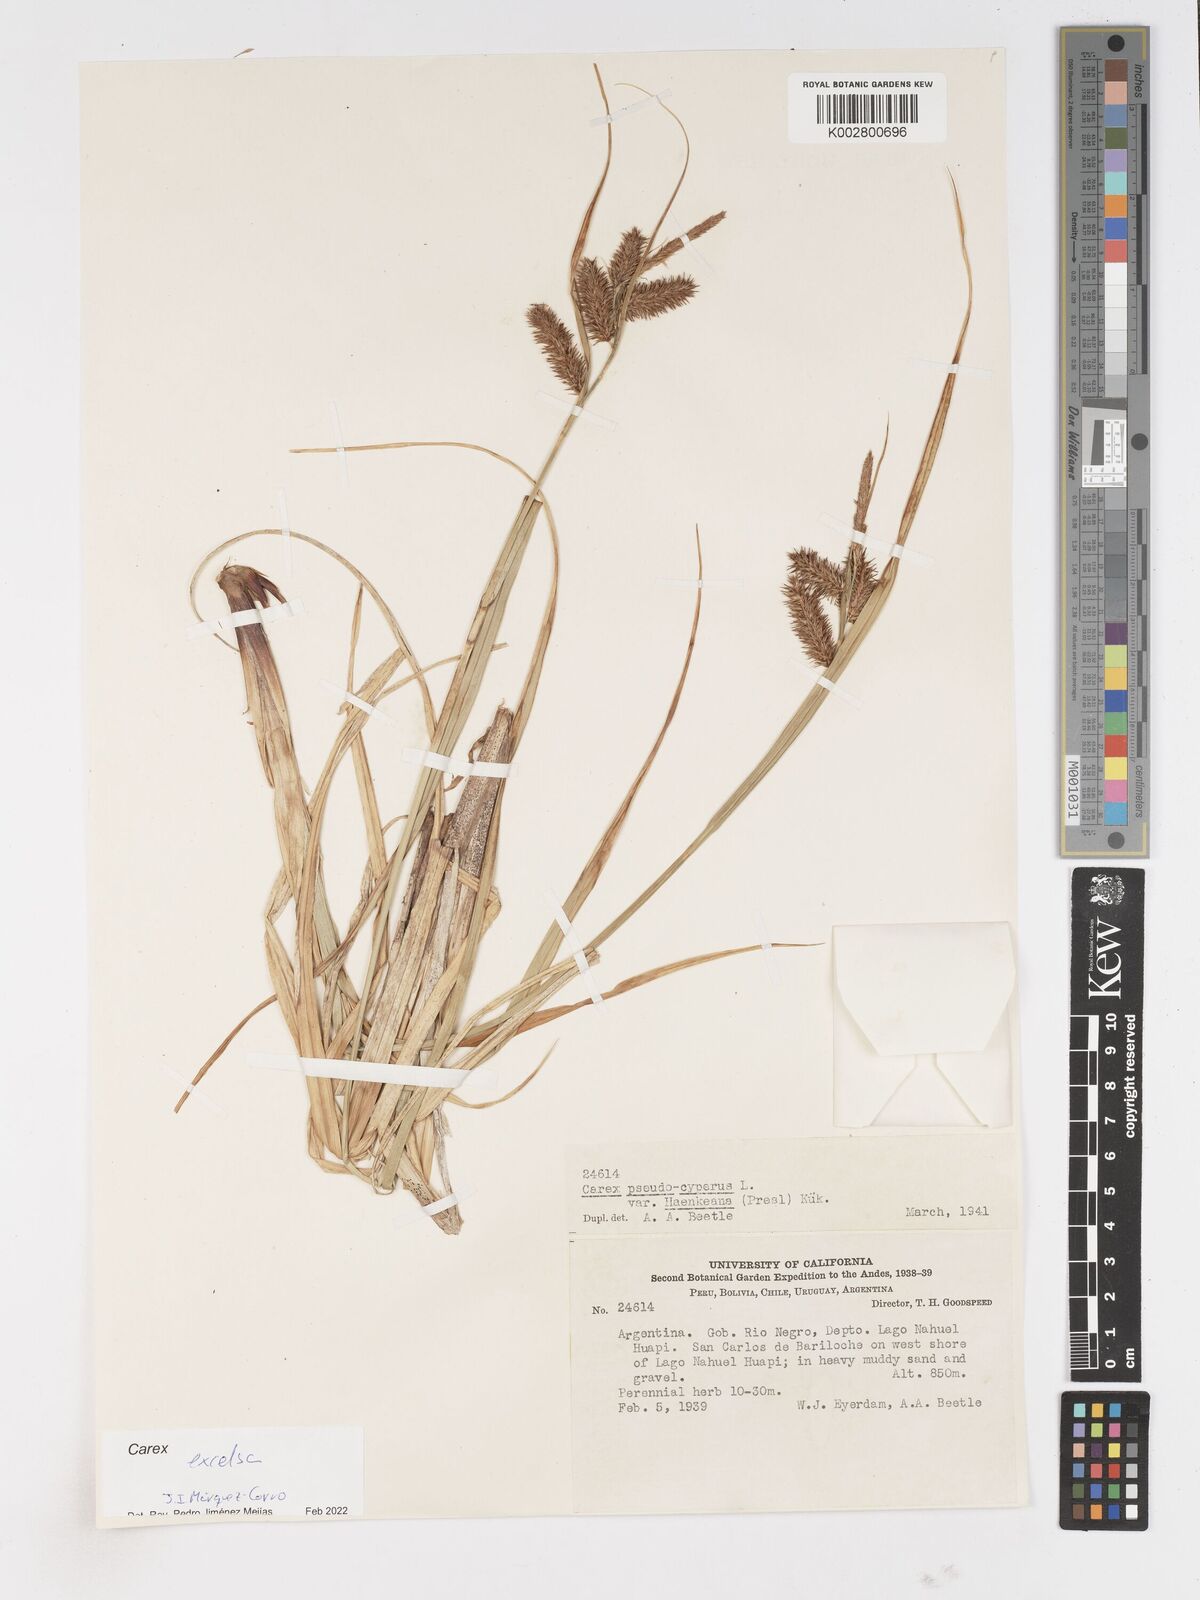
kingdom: Plantae
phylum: Tracheophyta
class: Liliopsida
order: Poales
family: Cyperaceae
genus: Carex
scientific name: Carex excelsa
